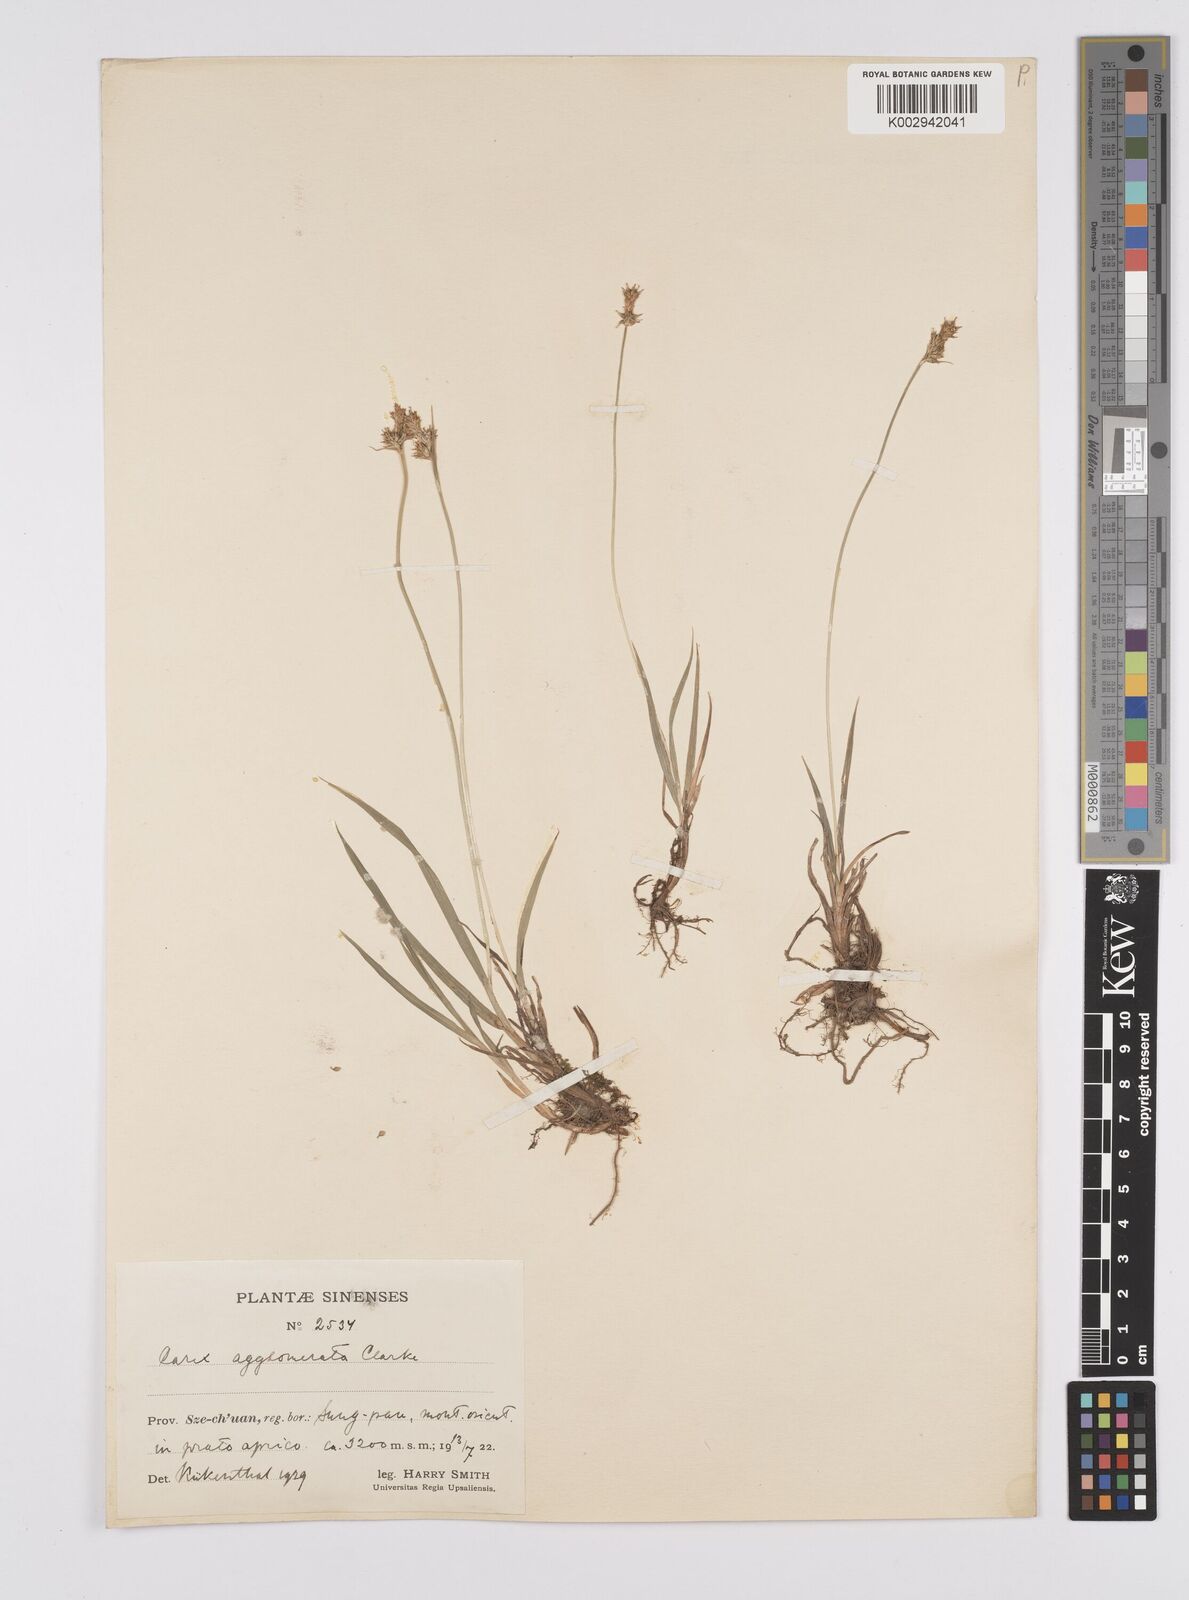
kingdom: Plantae
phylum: Tracheophyta
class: Liliopsida
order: Poales
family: Cyperaceae
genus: Carex
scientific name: Carex agglomerata
